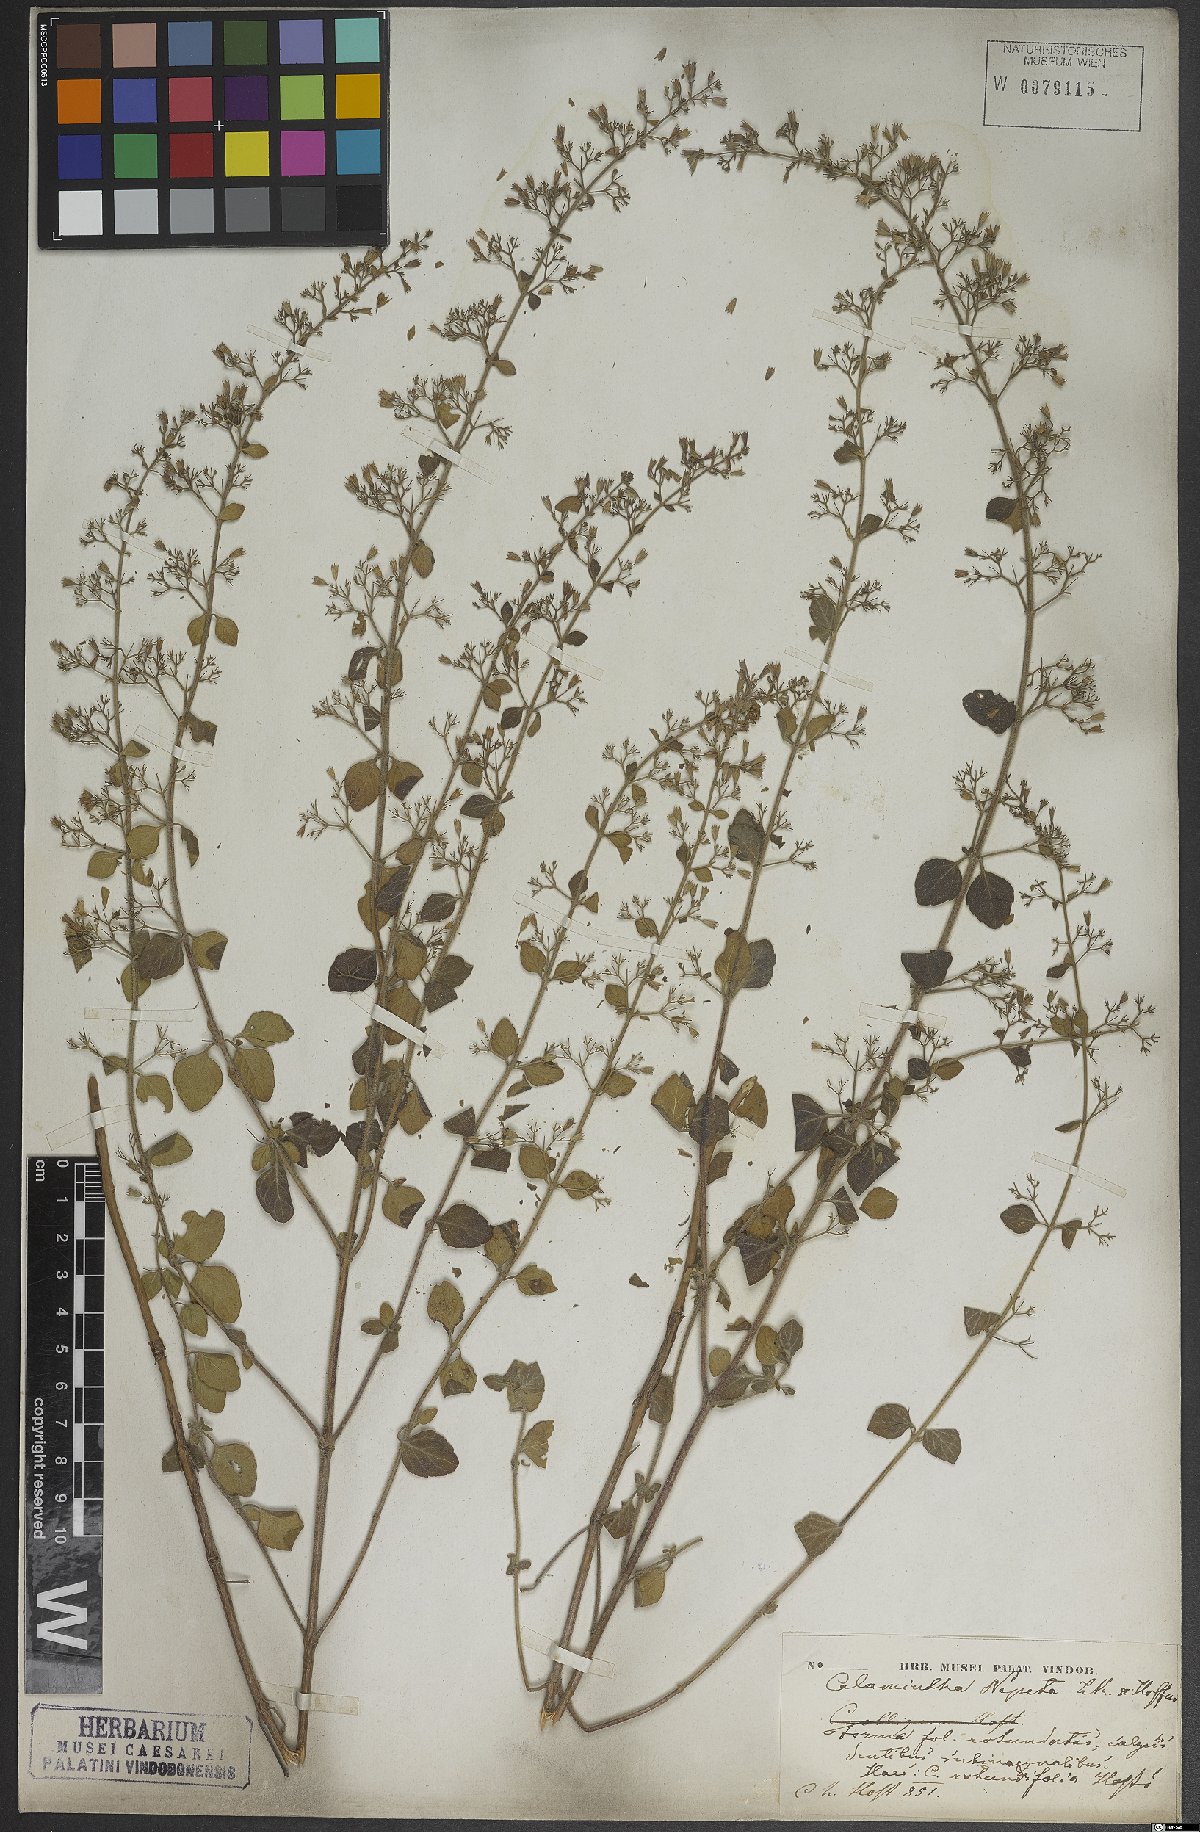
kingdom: Plantae
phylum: Tracheophyta
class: Magnoliopsida
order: Lamiales
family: Lamiaceae
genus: Clinopodium
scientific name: Clinopodium nepeta
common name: Lesser calamint
